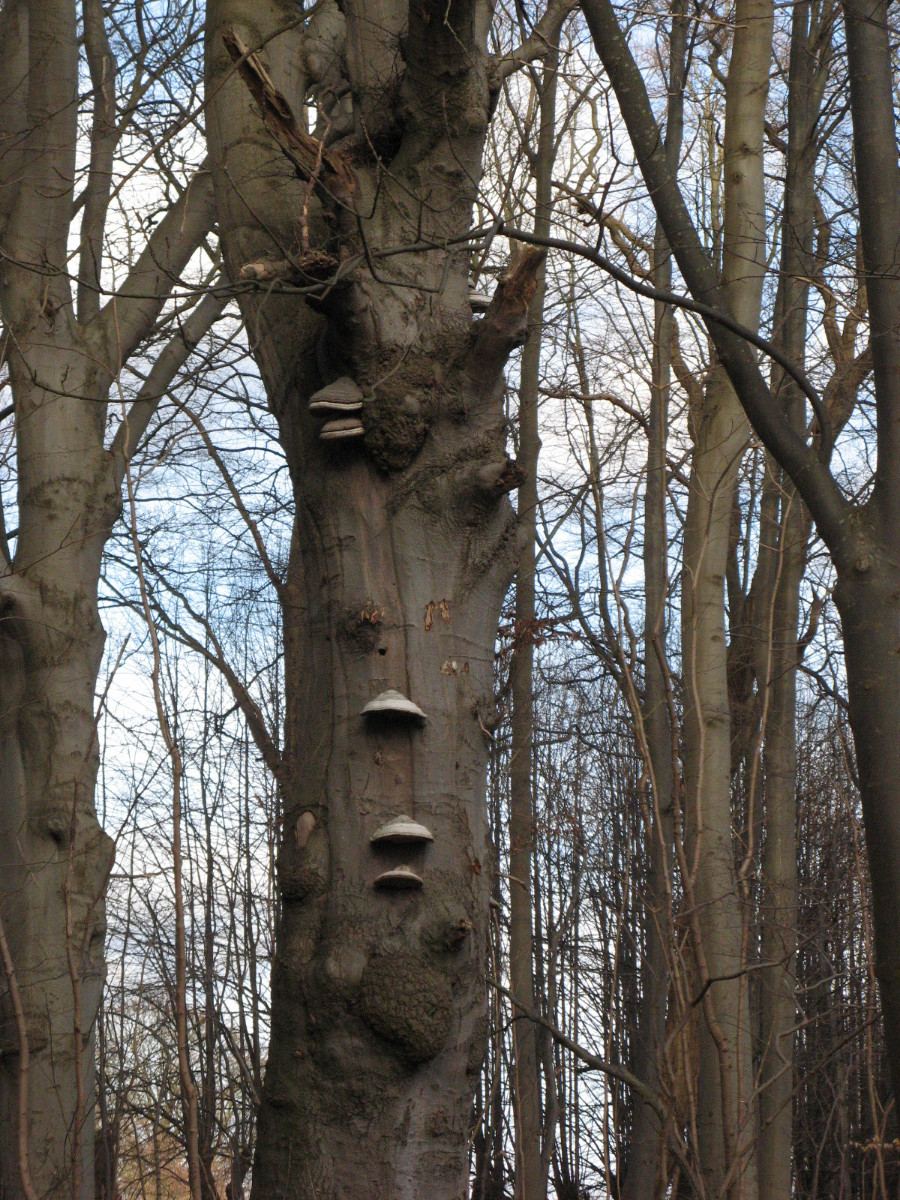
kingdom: Fungi
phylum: Basidiomycota
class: Agaricomycetes
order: Polyporales
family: Polyporaceae
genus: Fomes
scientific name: Fomes fomentarius
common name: tøndersvamp
